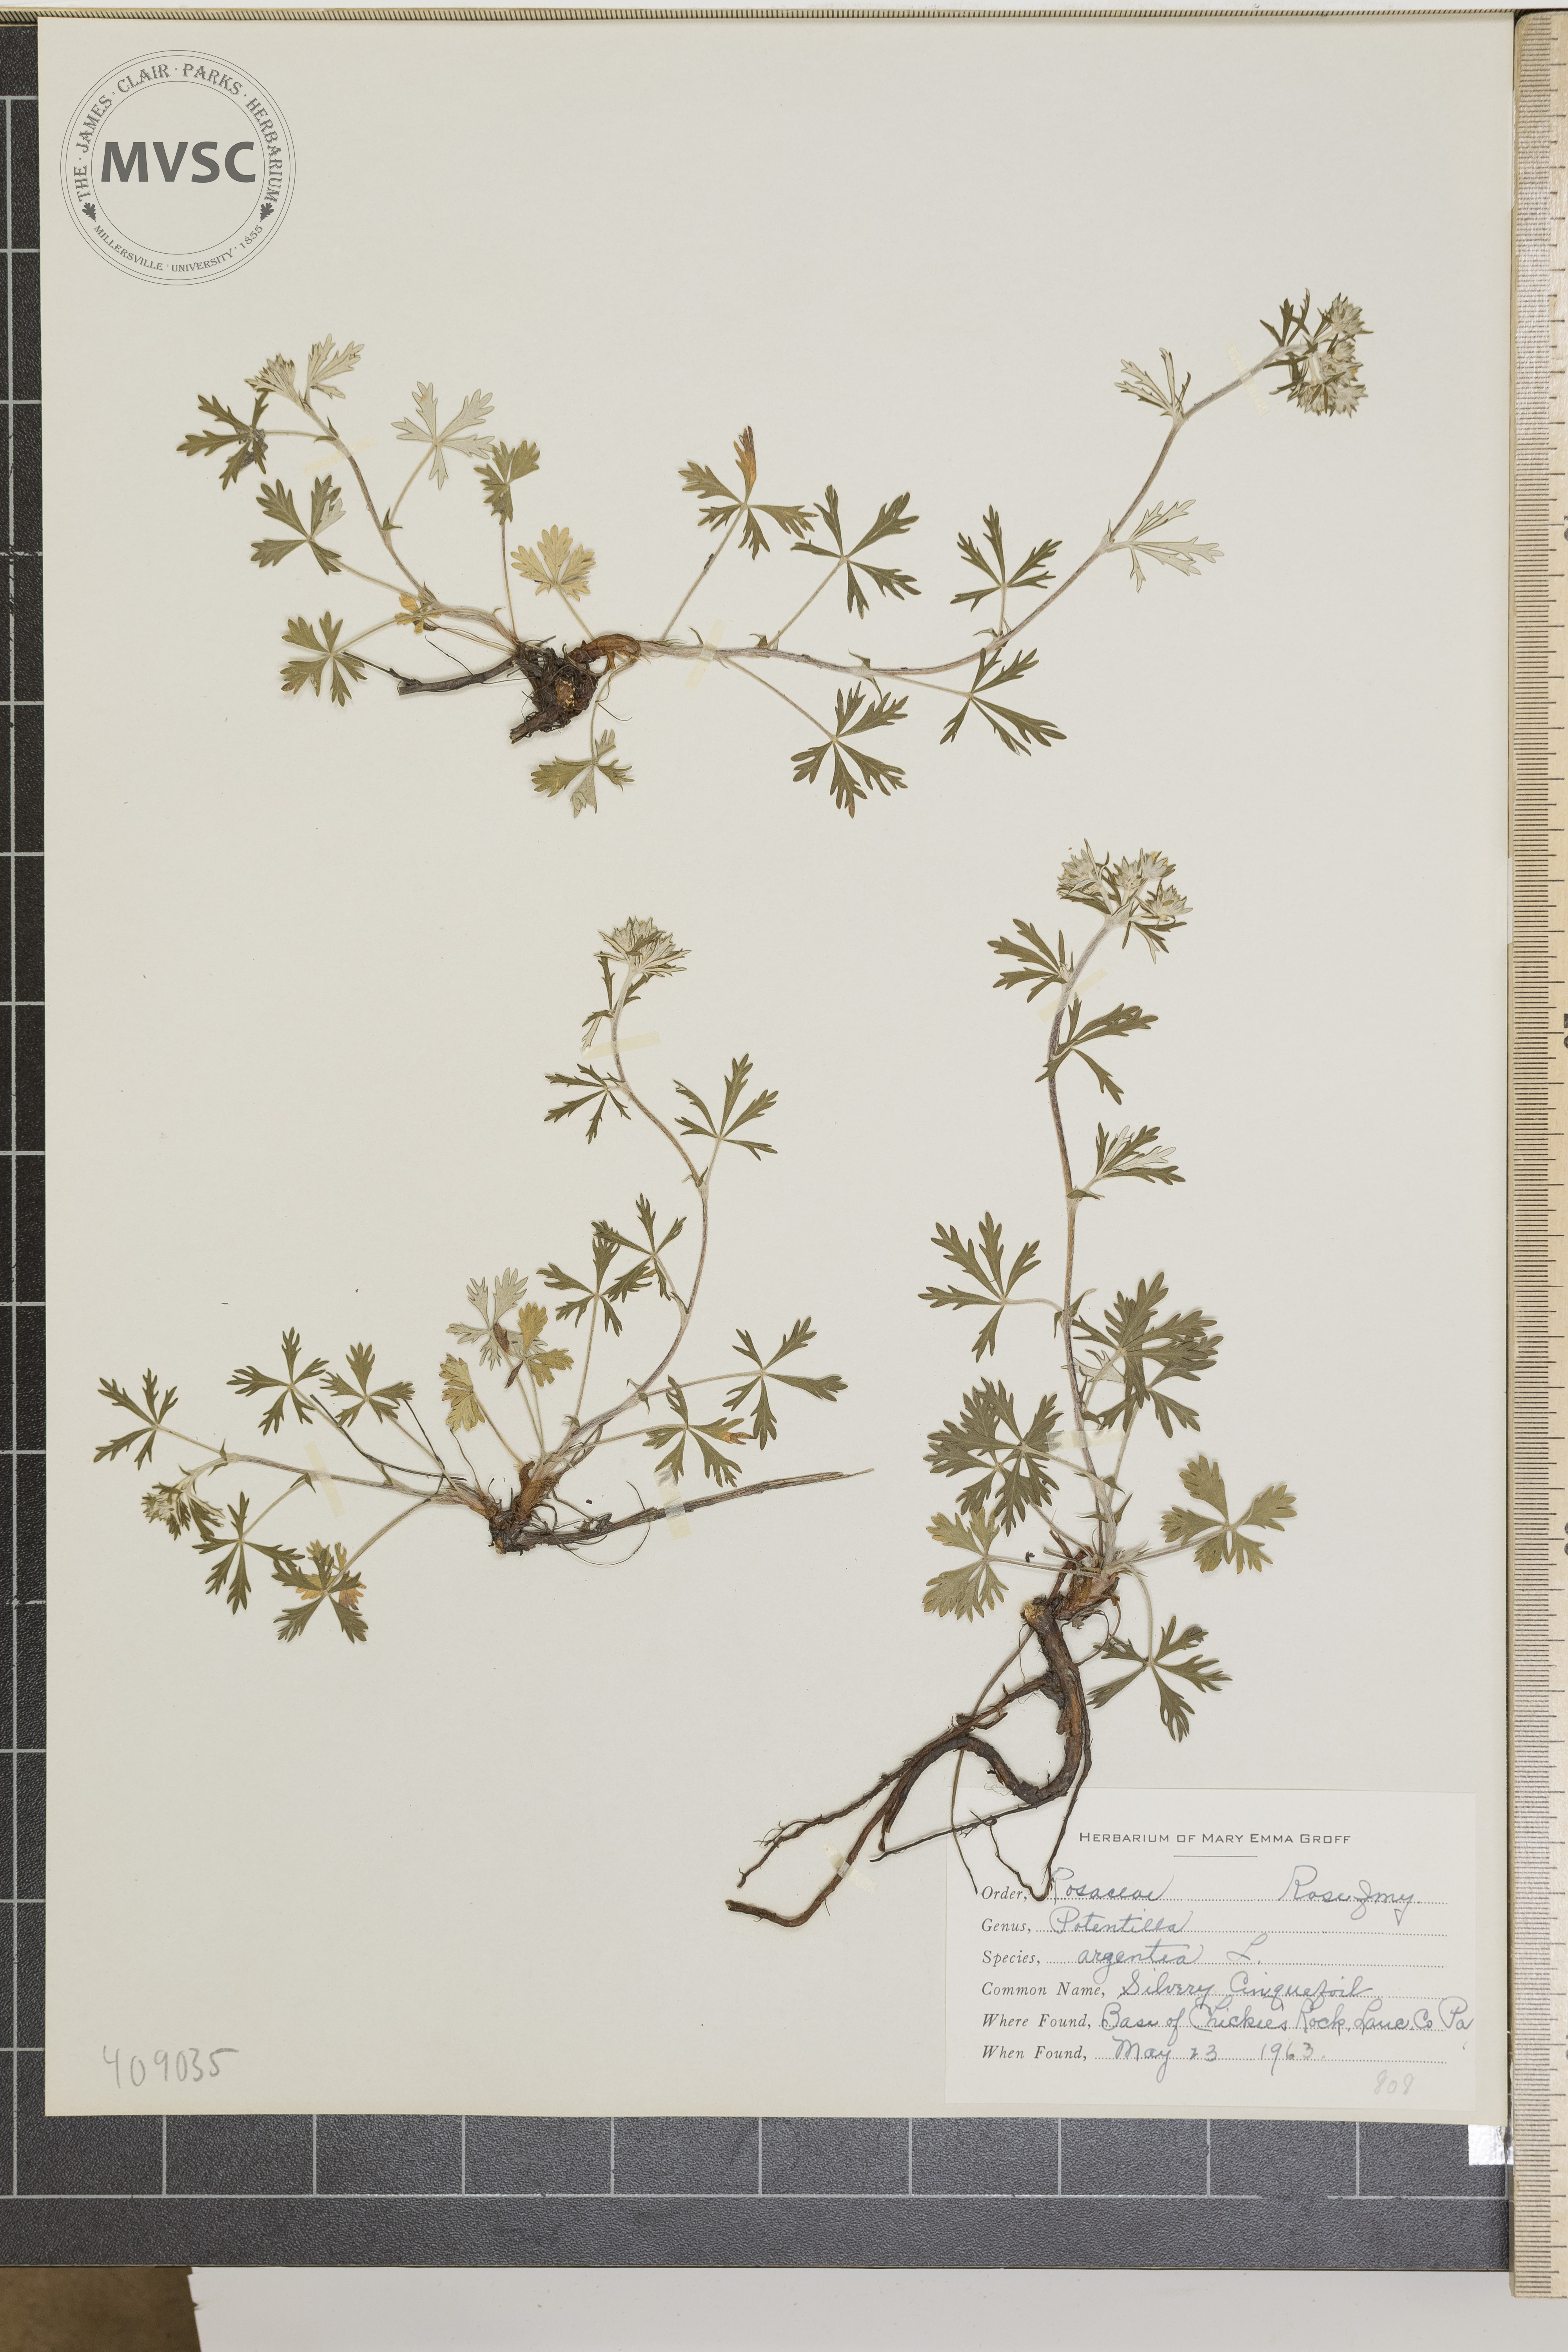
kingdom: Plantae
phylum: Tracheophyta
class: Magnoliopsida
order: Rosales
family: Rosaceae
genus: Potentilla
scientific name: Potentilla argentea
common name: Silvery Cinquefoil
